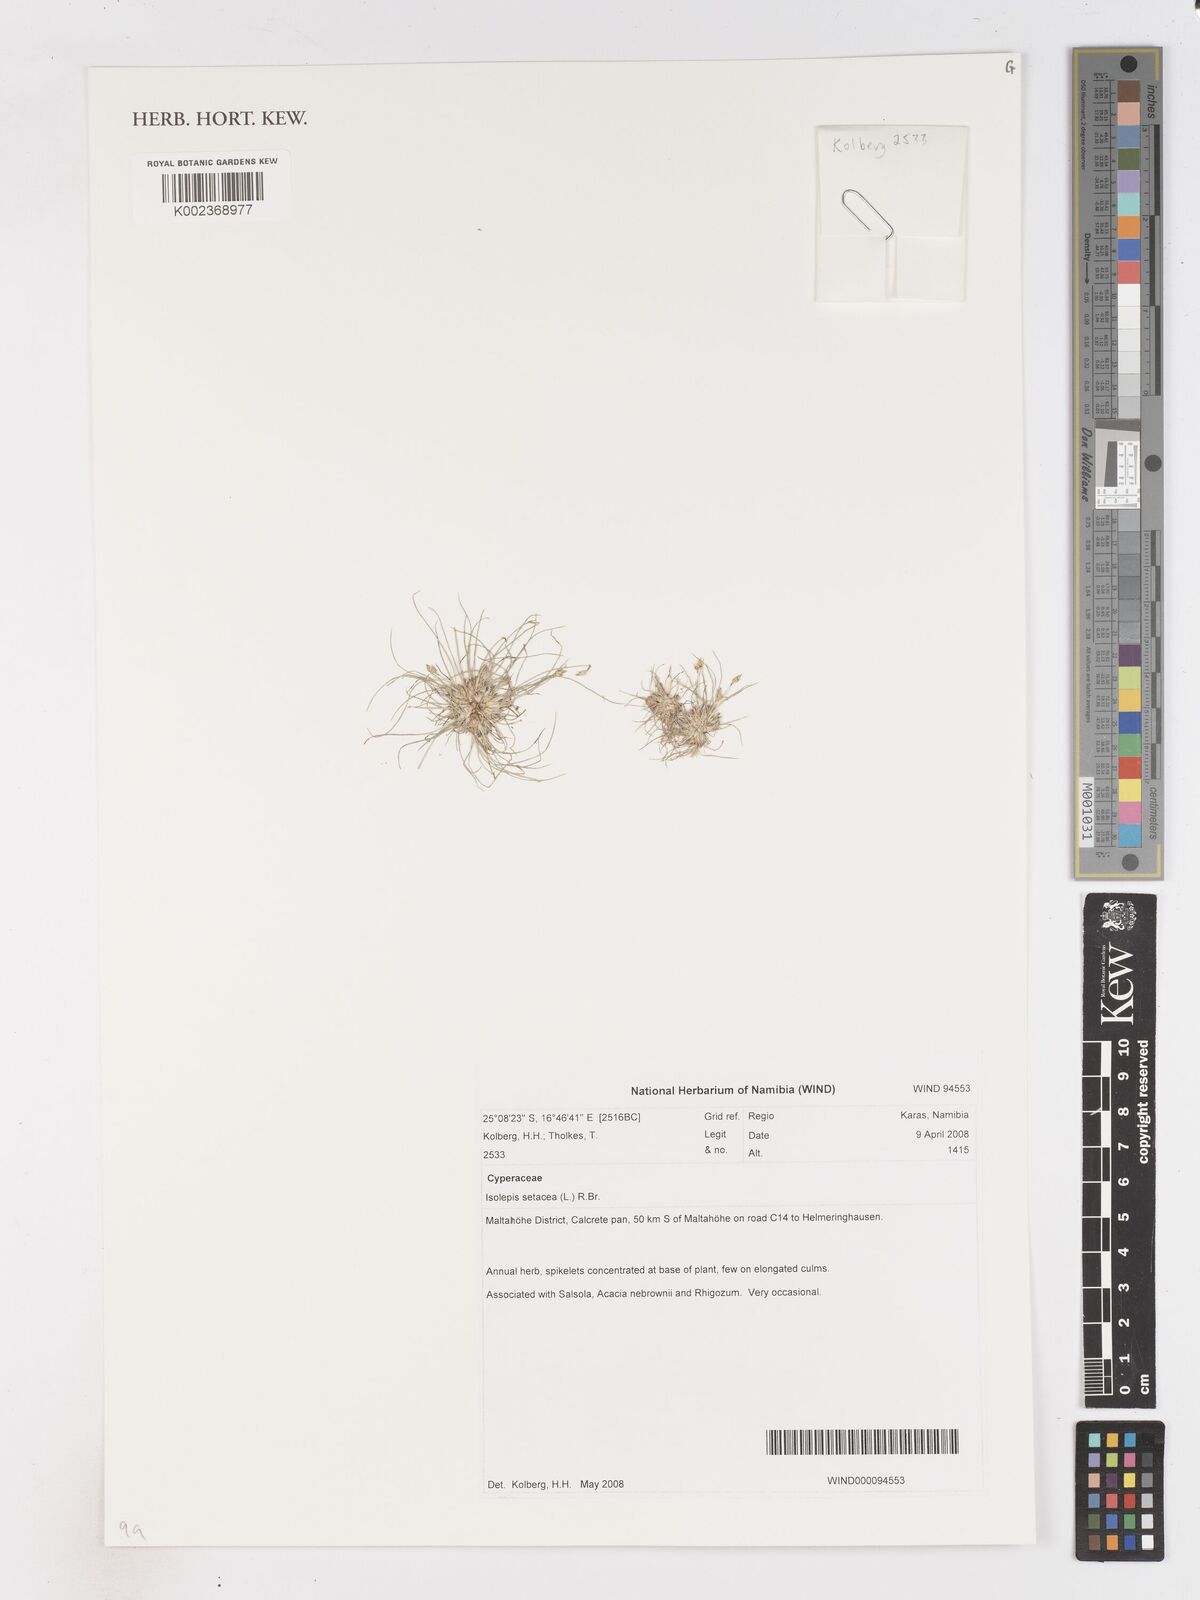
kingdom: Plantae
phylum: Tracheophyta
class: Liliopsida
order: Poales
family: Cyperaceae
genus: Isolepis
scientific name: Isolepis setacea
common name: Bristle club-rush
